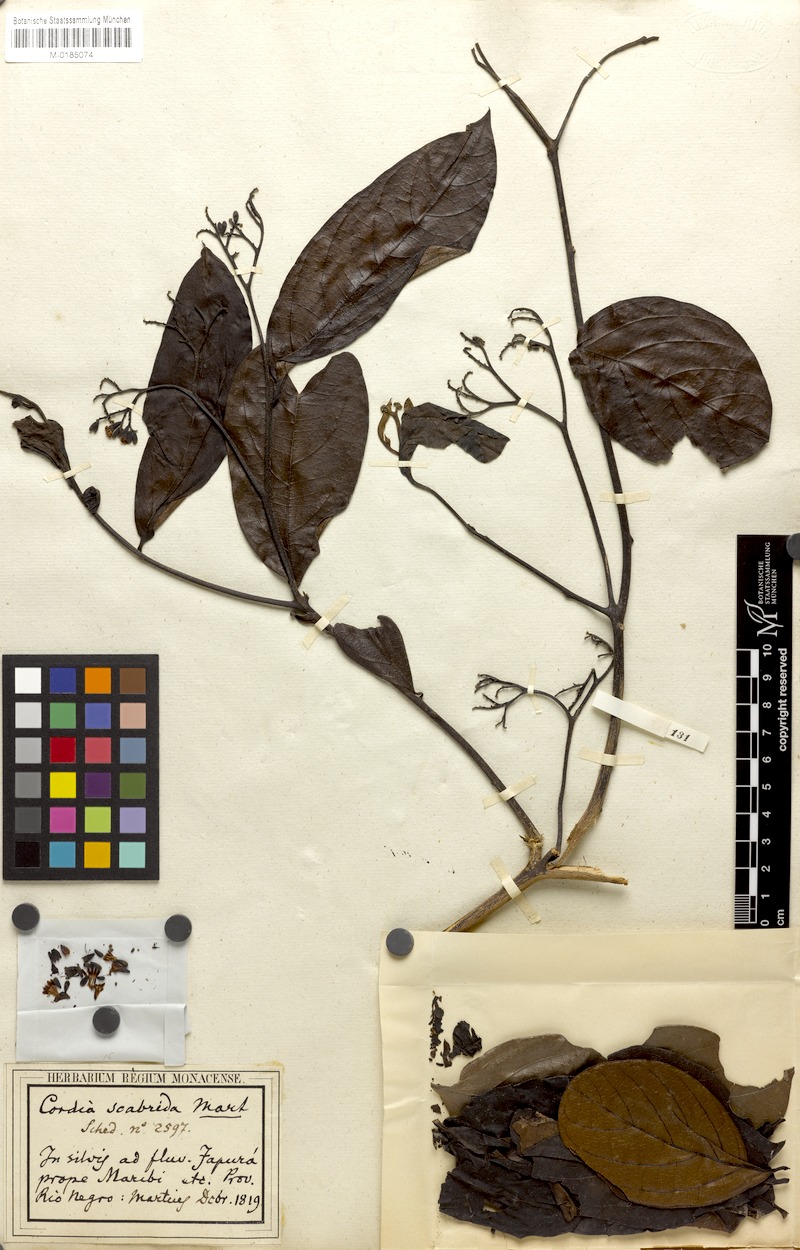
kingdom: Plantae
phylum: Tracheophyta
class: Magnoliopsida
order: Boraginales
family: Cordiaceae
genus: Cordia
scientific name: Cordia exaltata
